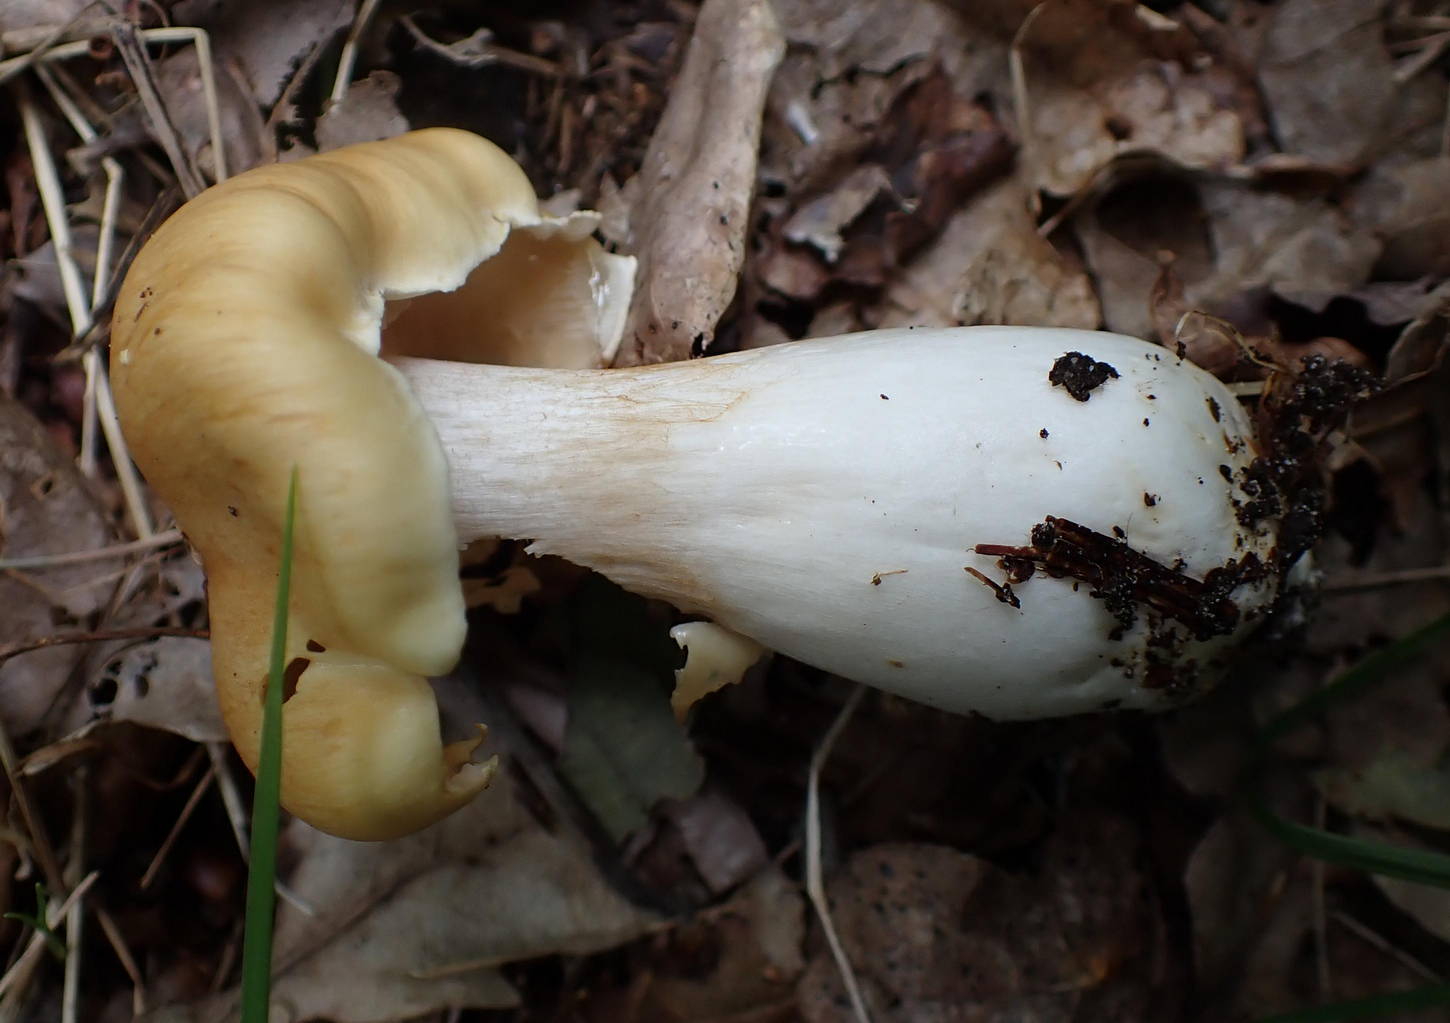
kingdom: Fungi
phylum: Basidiomycota
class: Agaricomycetes
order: Agaricales
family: Cortinariaceae
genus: Thaxterogaster
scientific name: Thaxterogaster
